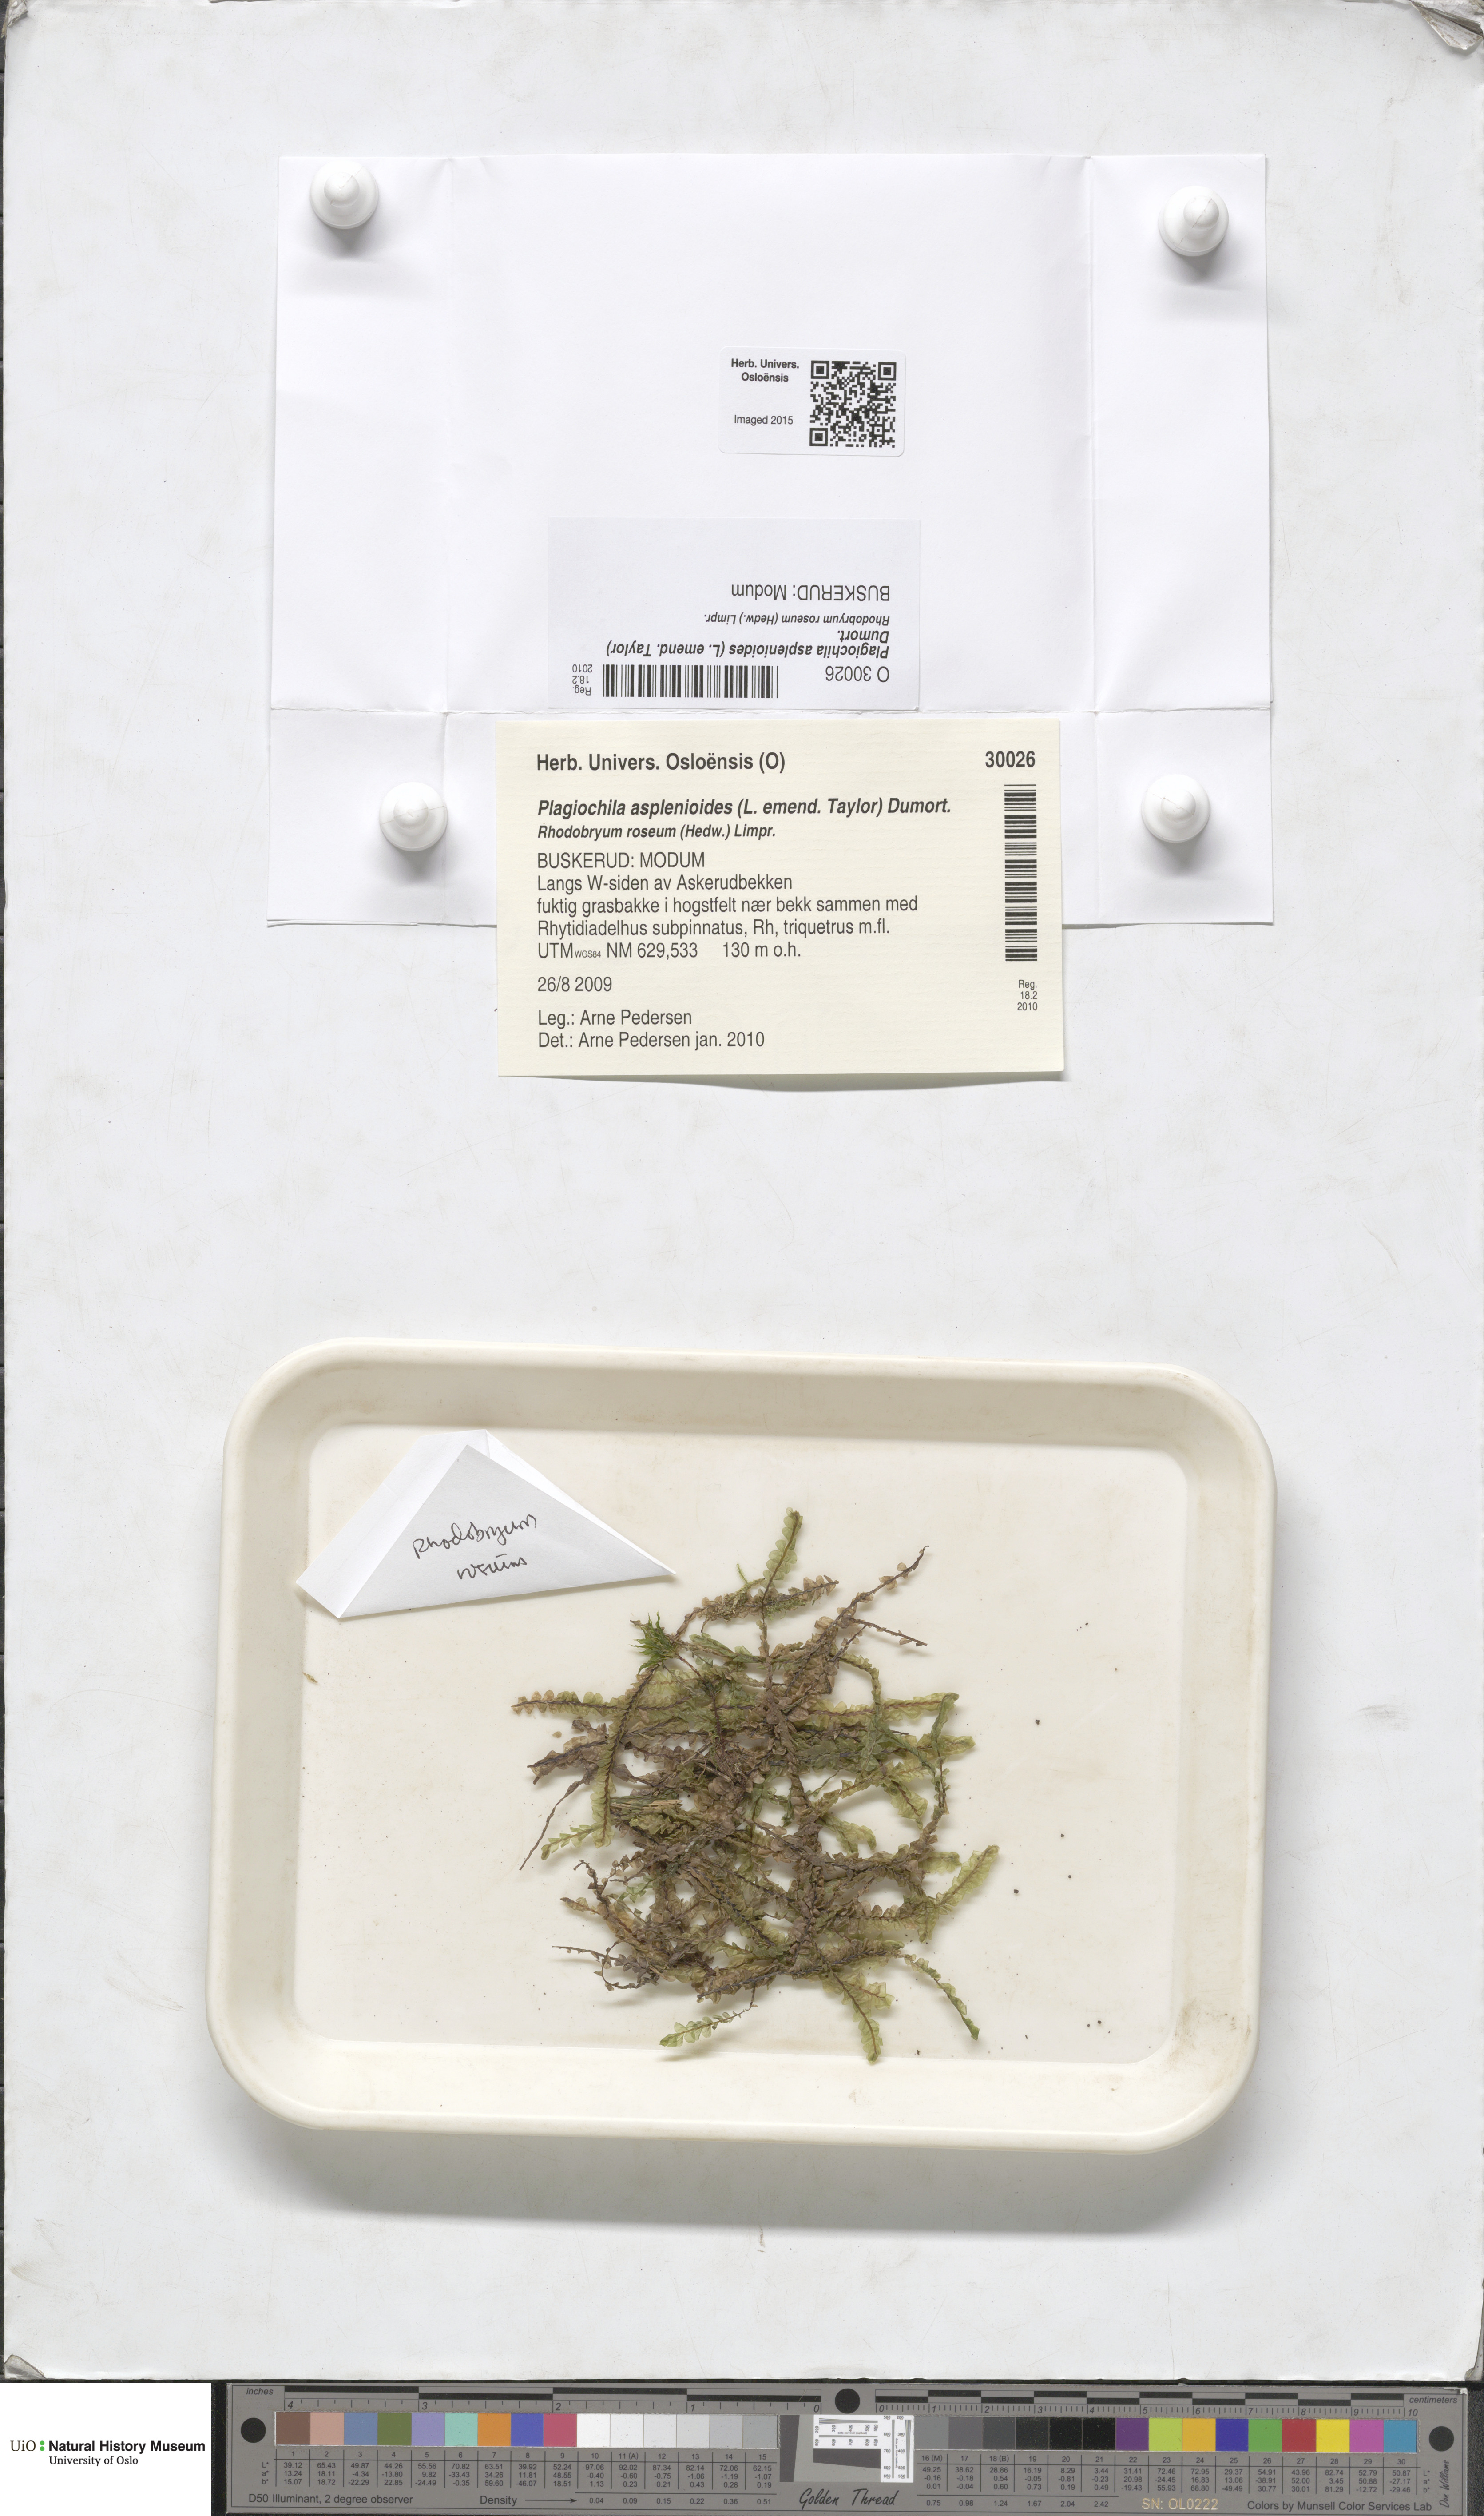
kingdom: Plantae
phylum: Marchantiophyta
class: Jungermanniopsida
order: Jungermanniales
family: Plagiochilaceae
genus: Plagiochila
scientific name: Plagiochila asplenioides
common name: Greater featherwort
